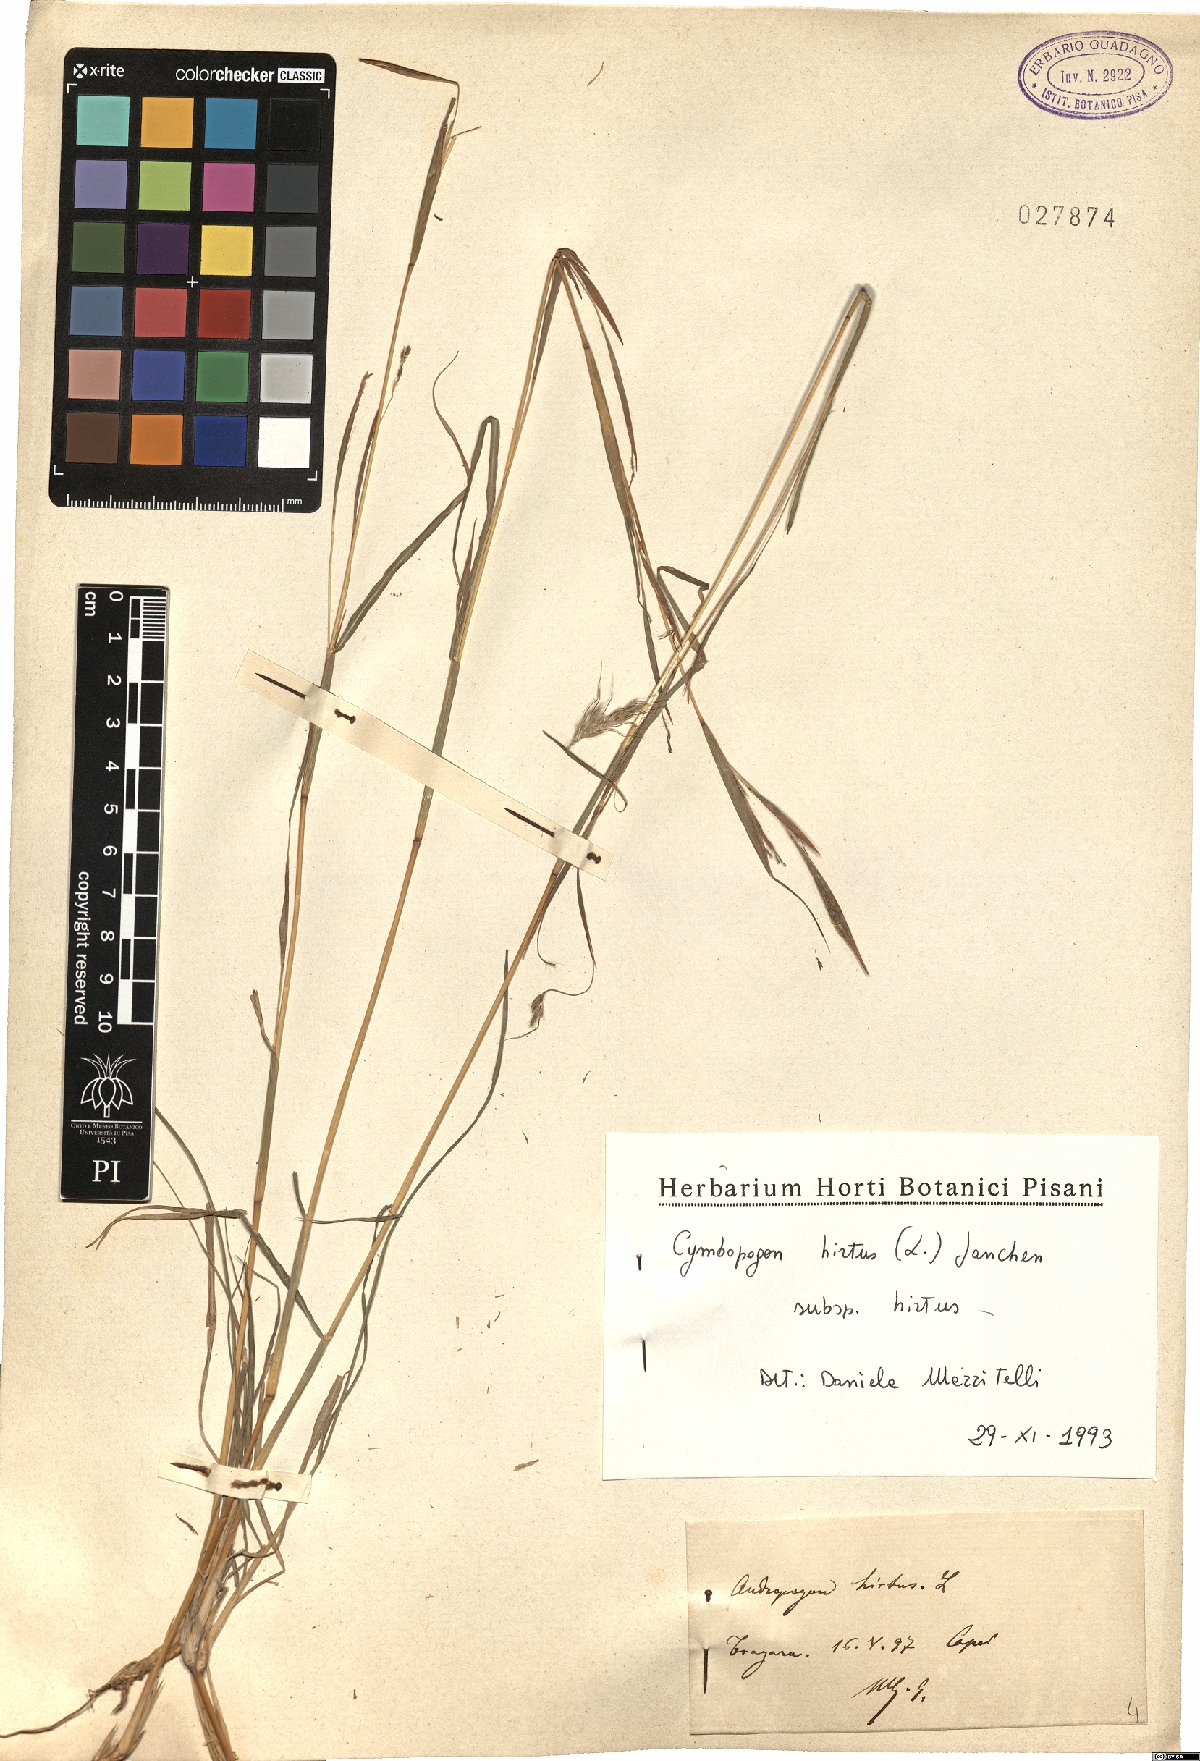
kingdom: Plantae
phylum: Tracheophyta
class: Liliopsida
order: Poales
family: Poaceae
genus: Cymbopogon
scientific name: Cymbopogon hirtus
